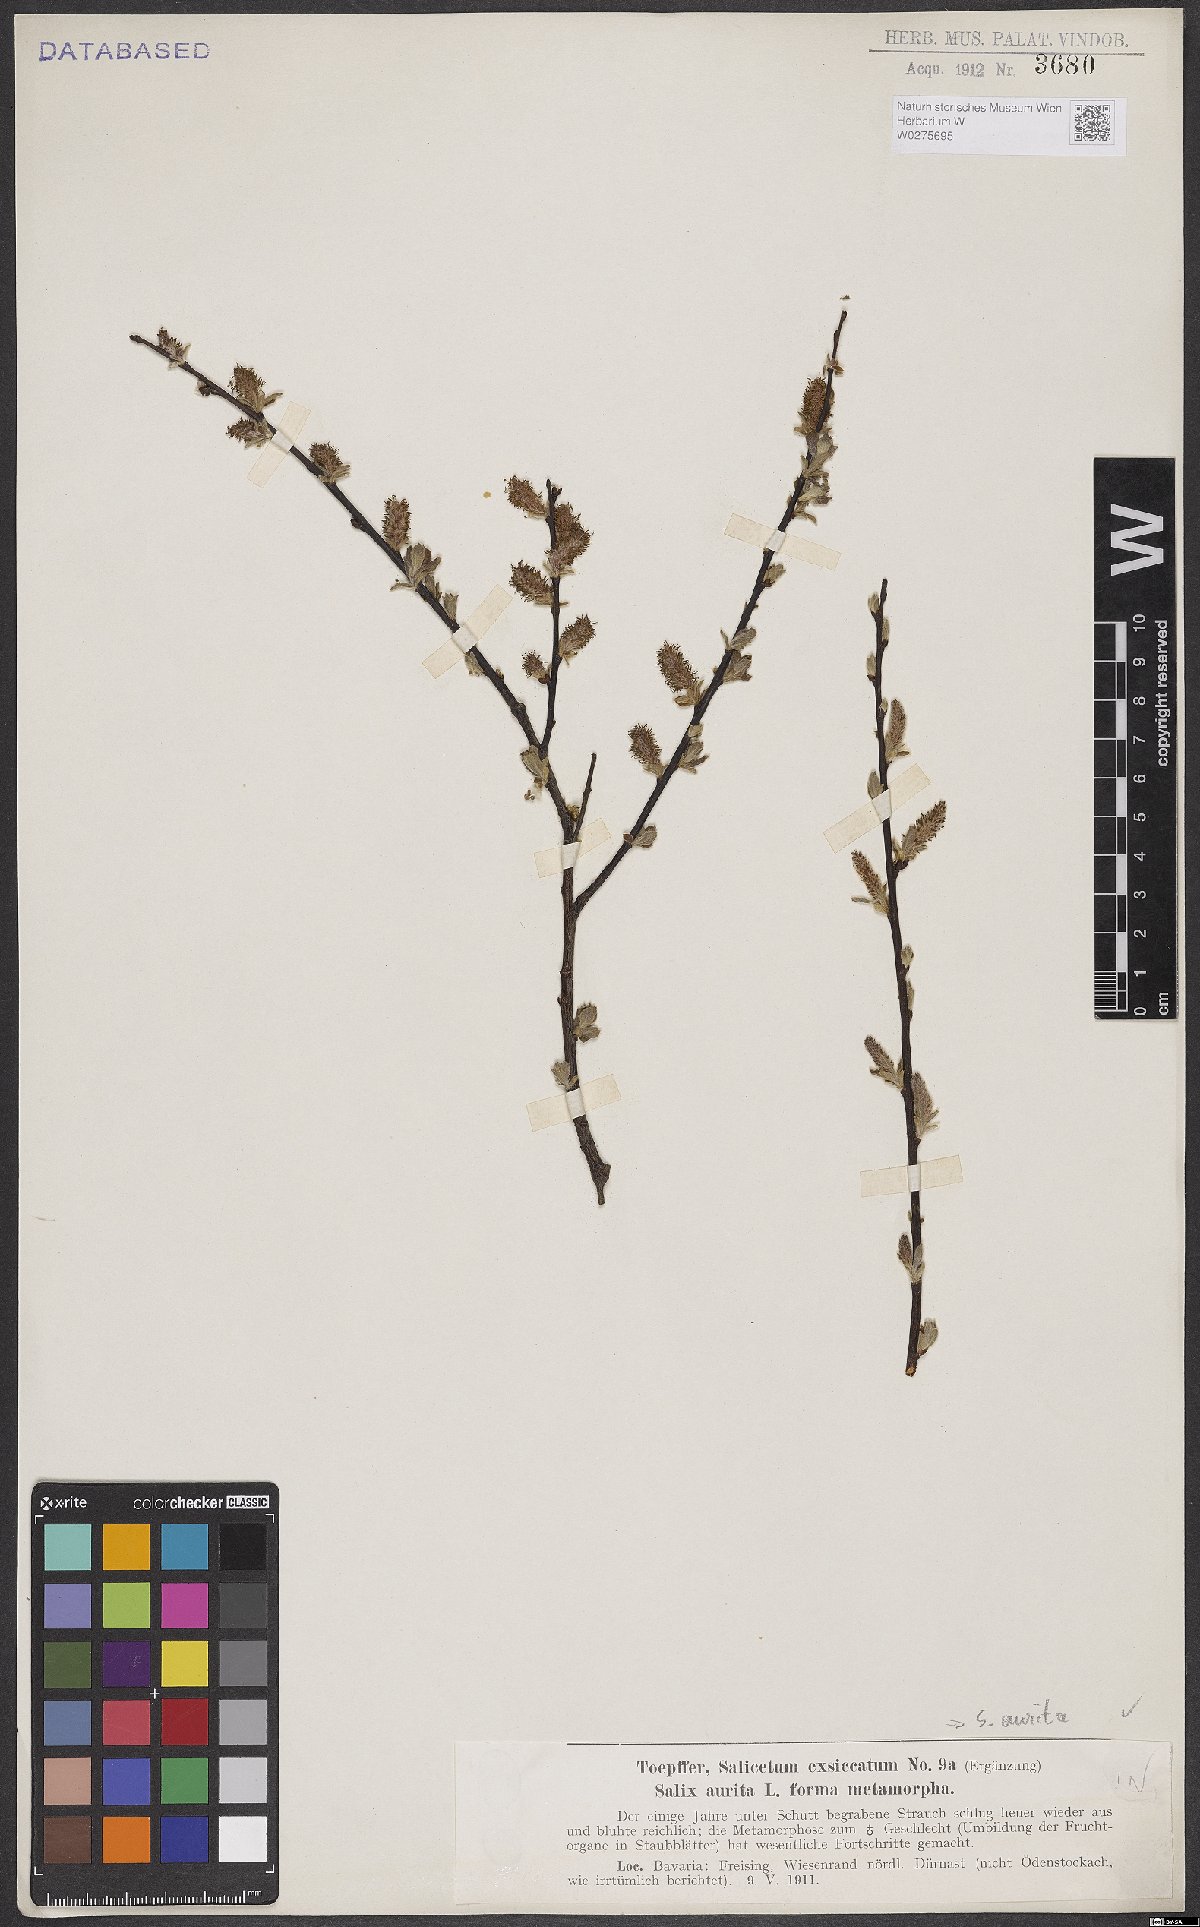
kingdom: Plantae
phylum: Tracheophyta
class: Magnoliopsida
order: Malpighiales
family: Salicaceae
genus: Salix
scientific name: Salix aurita
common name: Eared willow
